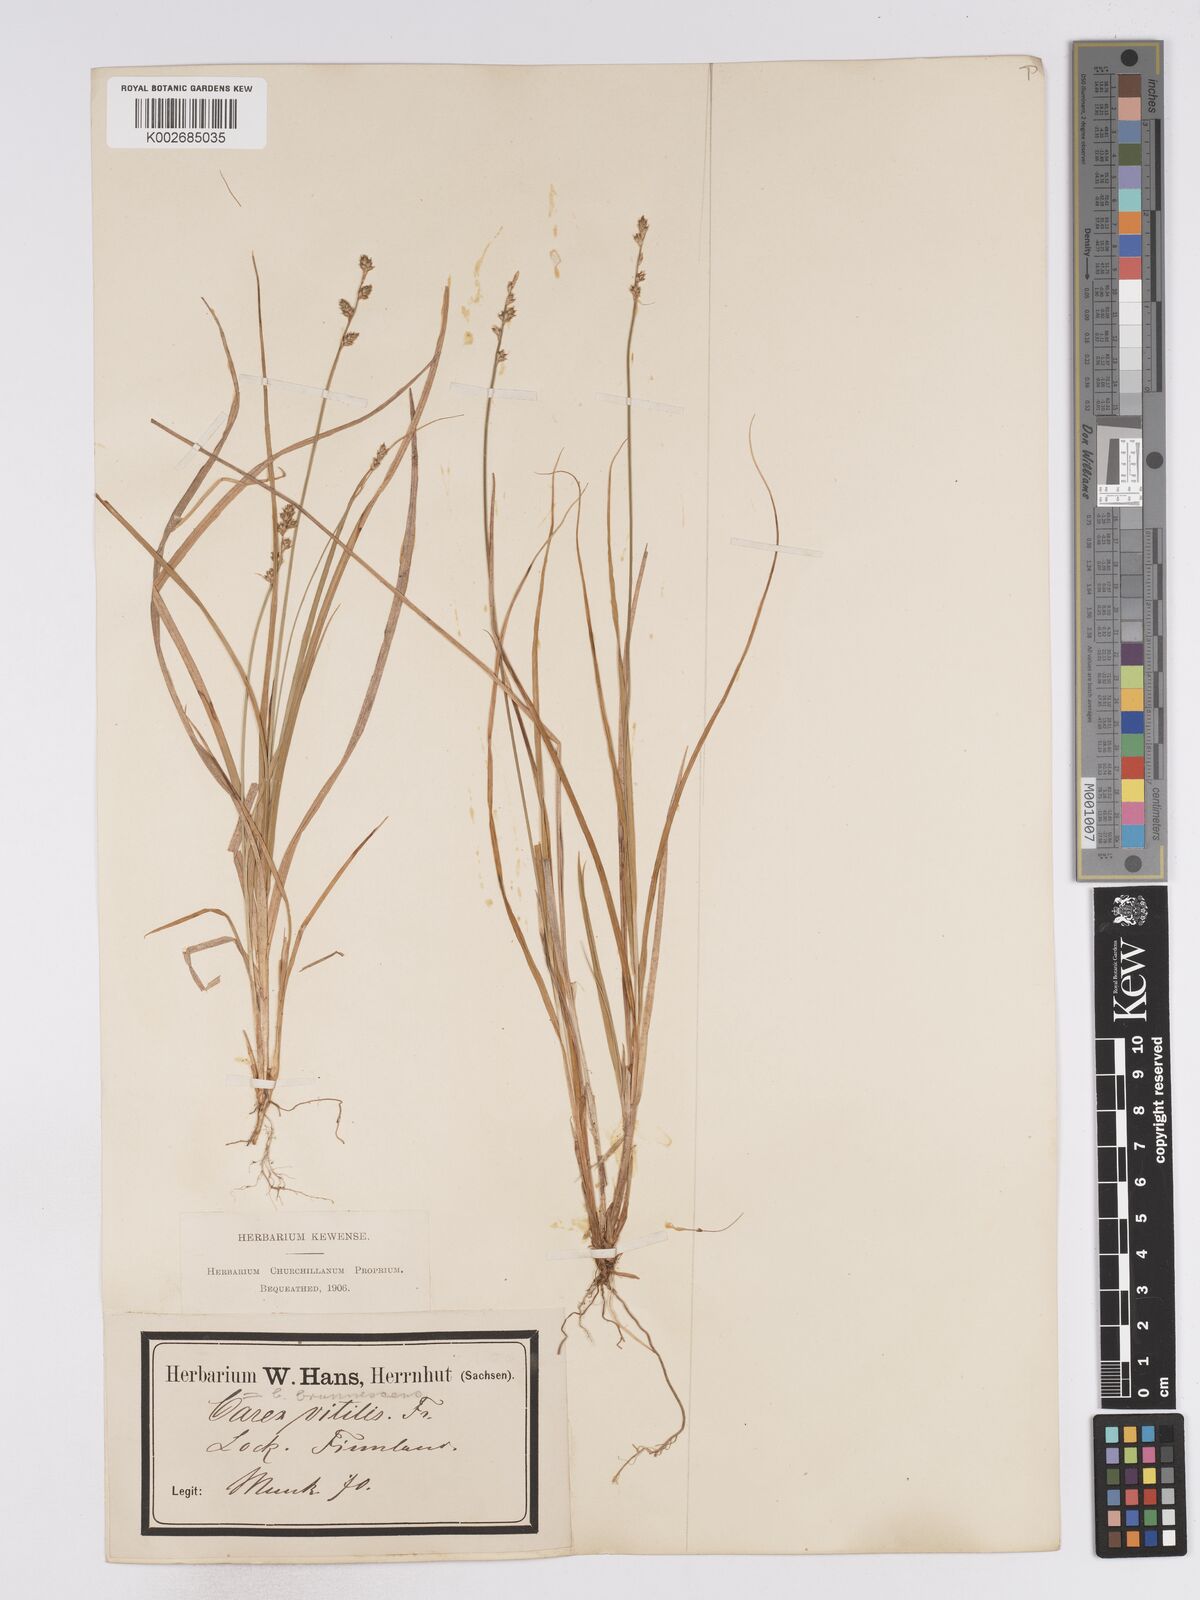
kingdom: Plantae
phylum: Tracheophyta
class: Liliopsida
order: Poales
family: Cyperaceae
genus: Carex
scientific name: Carex brunnescens
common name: Brown sedge
